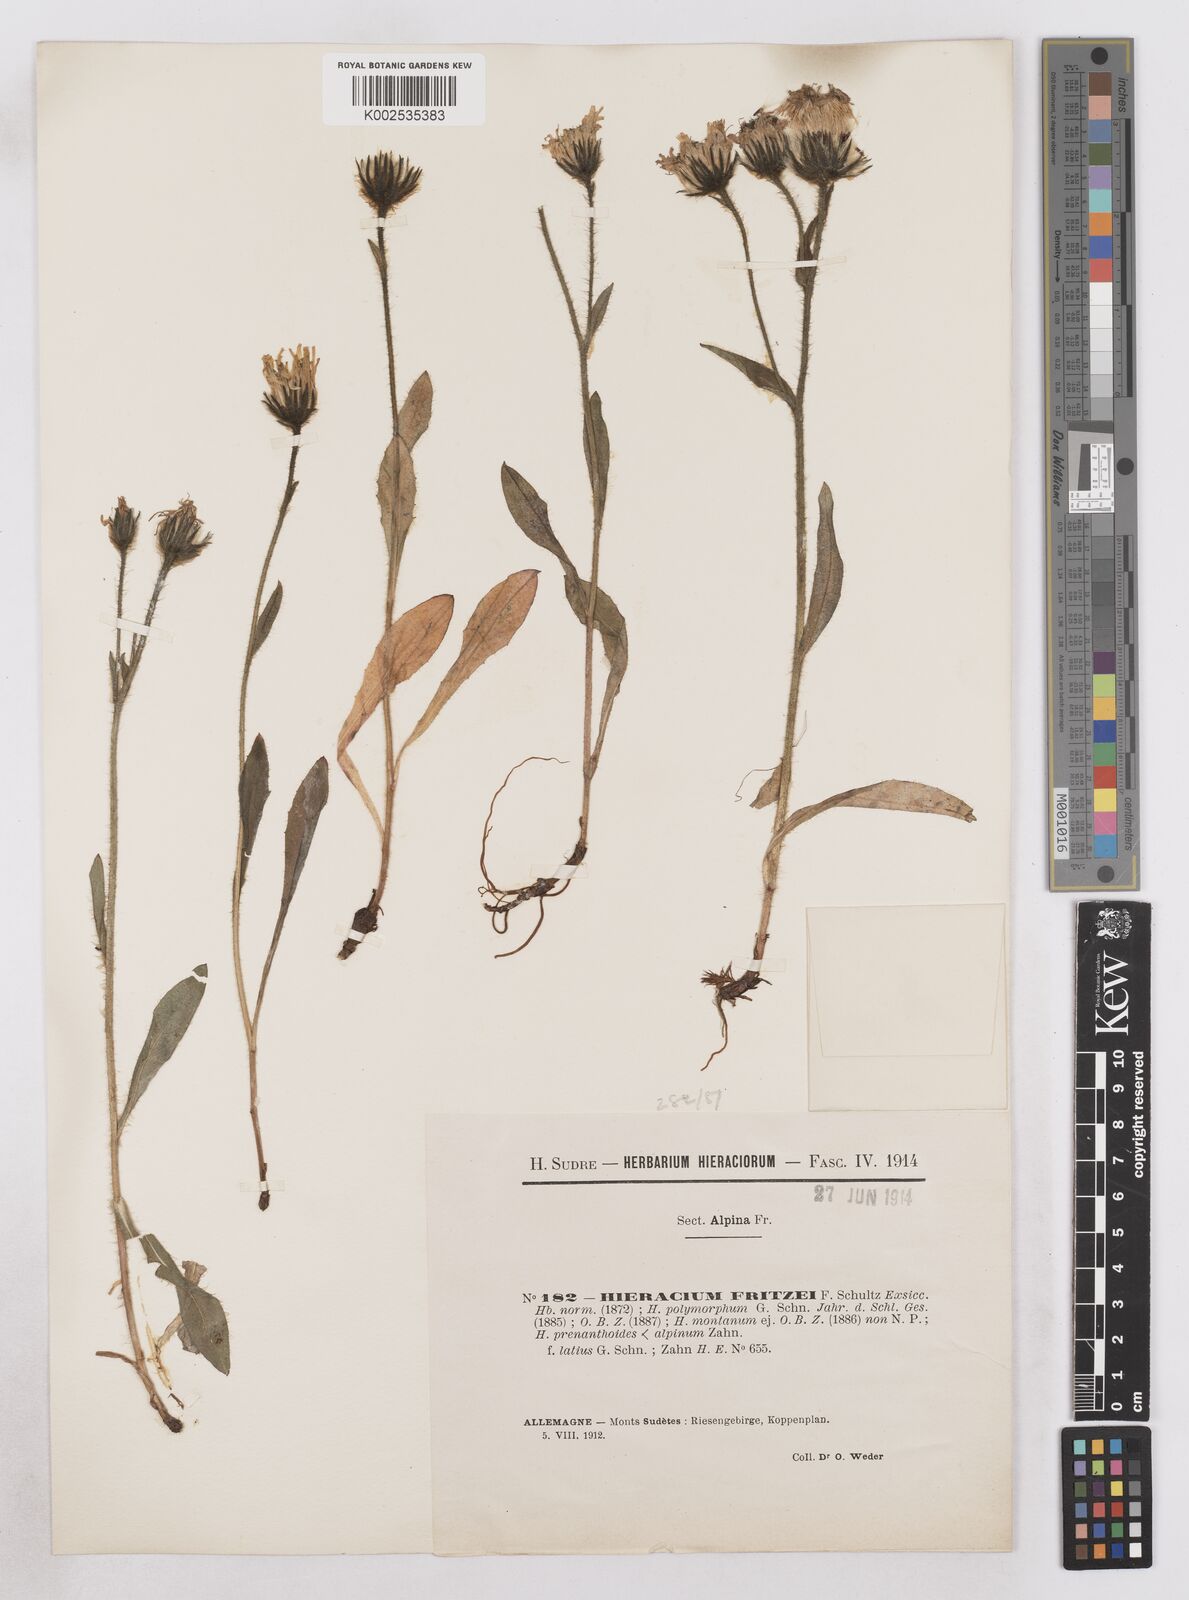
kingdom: Plantae
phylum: Tracheophyta
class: Magnoliopsida
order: Asterales
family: Asteraceae
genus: Hieracium
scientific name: Hieracium alpinum
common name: Alpine hawkweed
